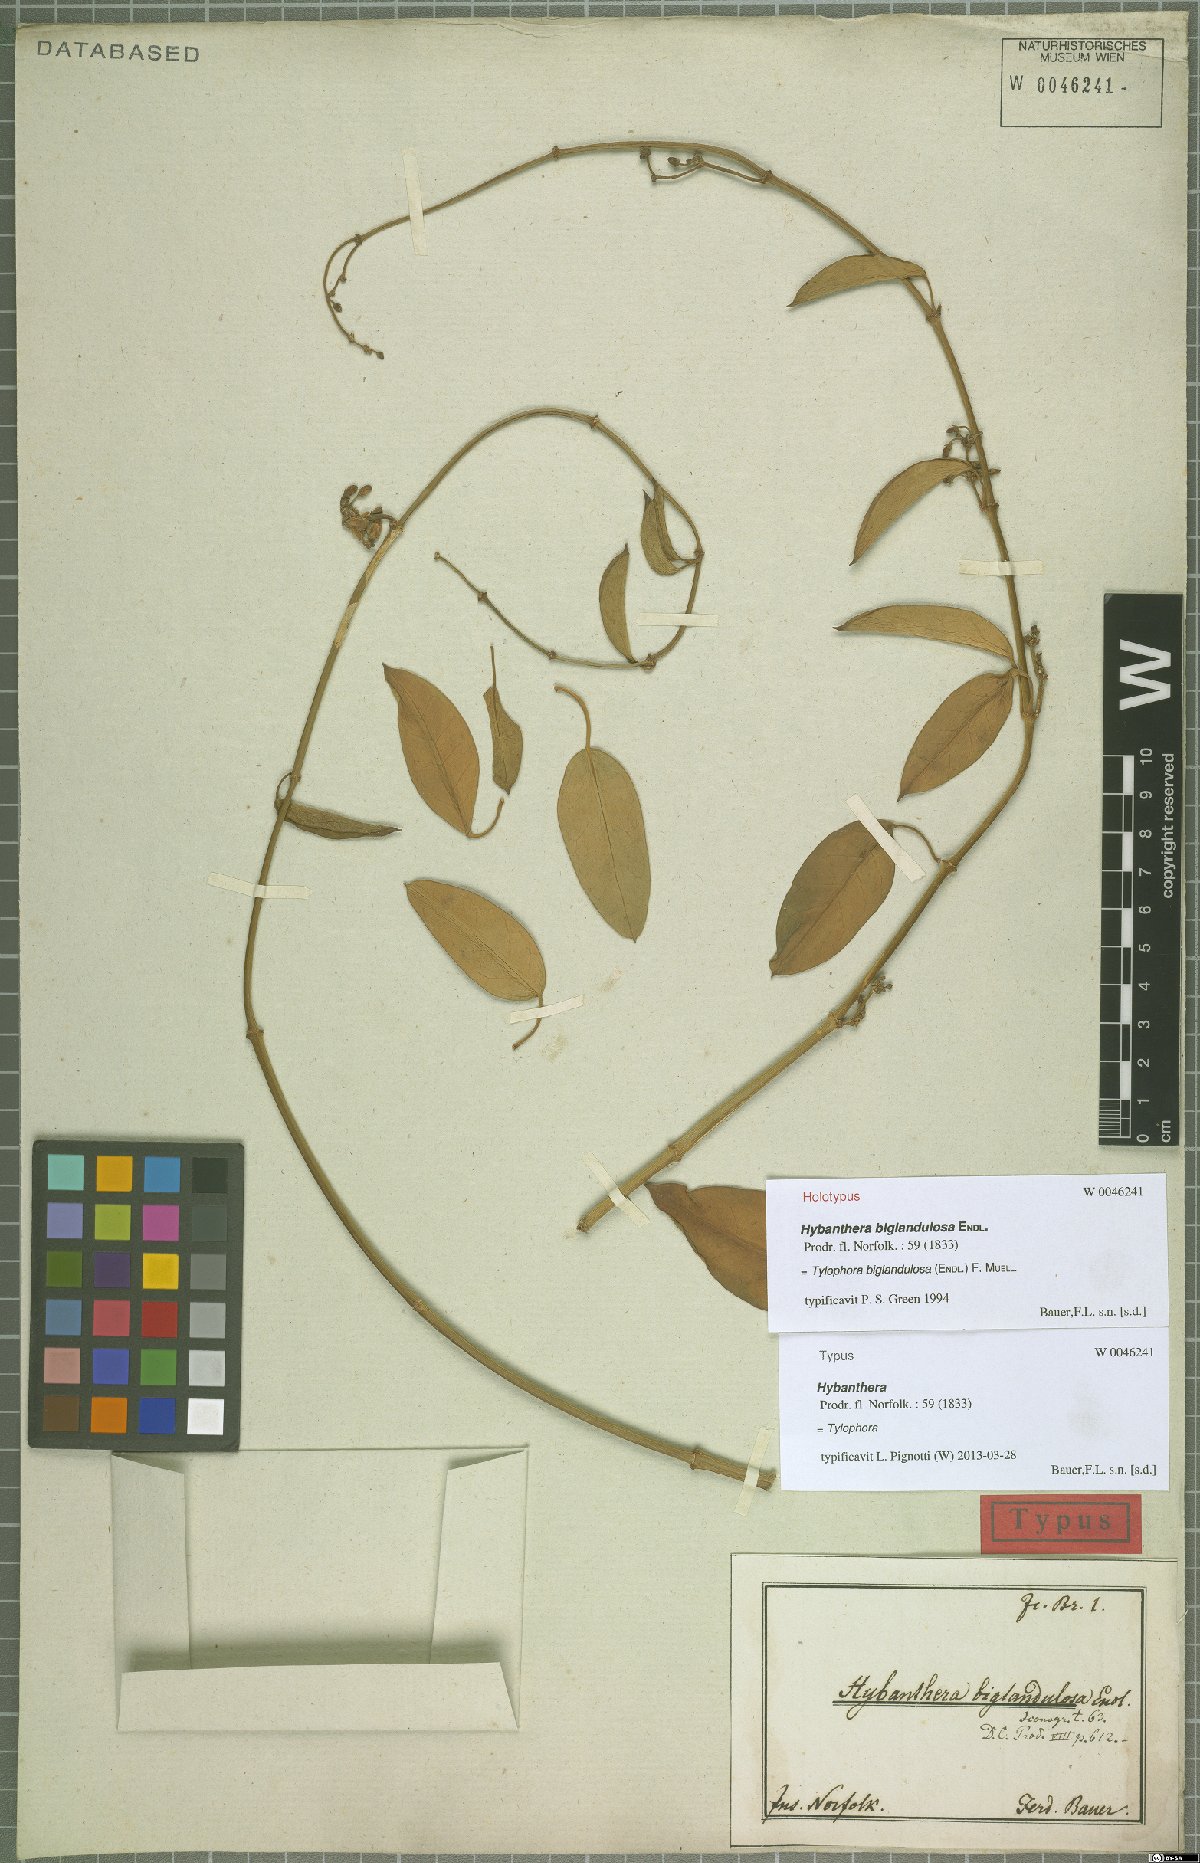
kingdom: Plantae
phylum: Tracheophyta
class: Magnoliopsida
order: Gentianales
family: Apocynaceae
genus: Vincetoxicum
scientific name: Vincetoxicum biglandulosum
